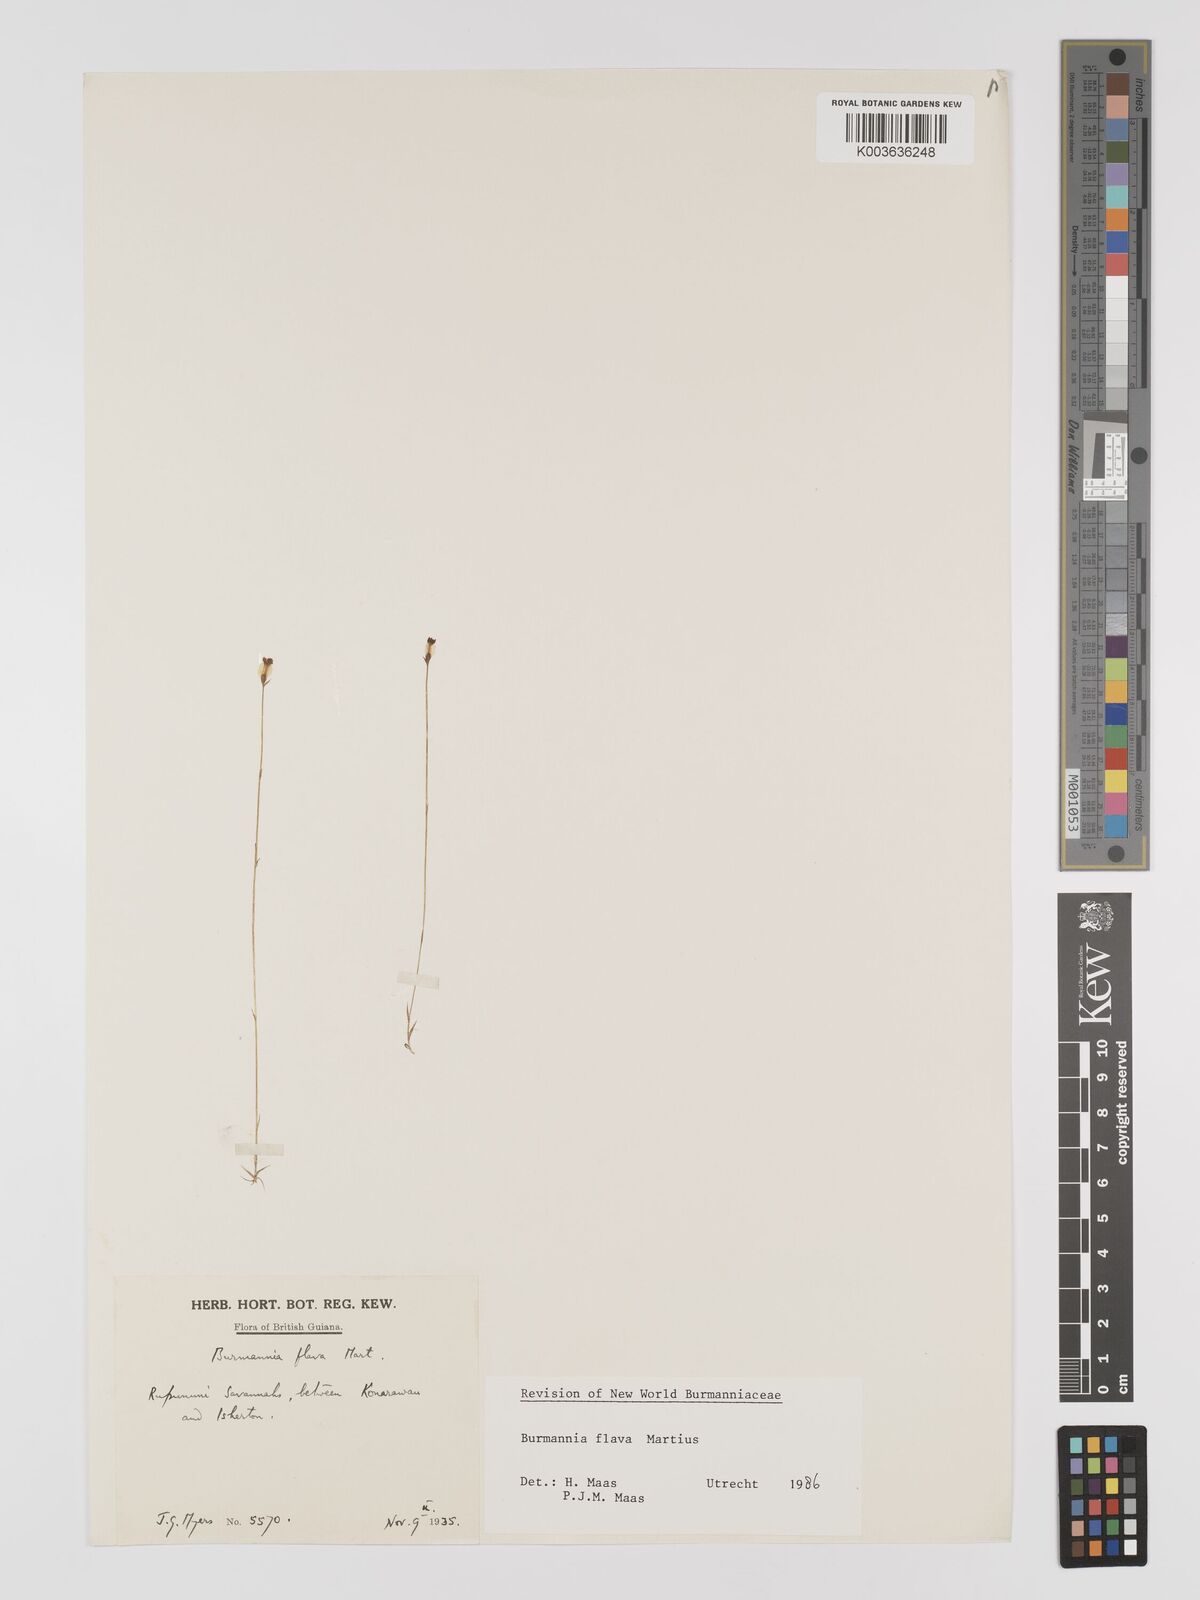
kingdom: Plantae
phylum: Tracheophyta
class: Liliopsida
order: Dioscoreales
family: Burmanniaceae
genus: Burmannia
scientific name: Burmannia flava
